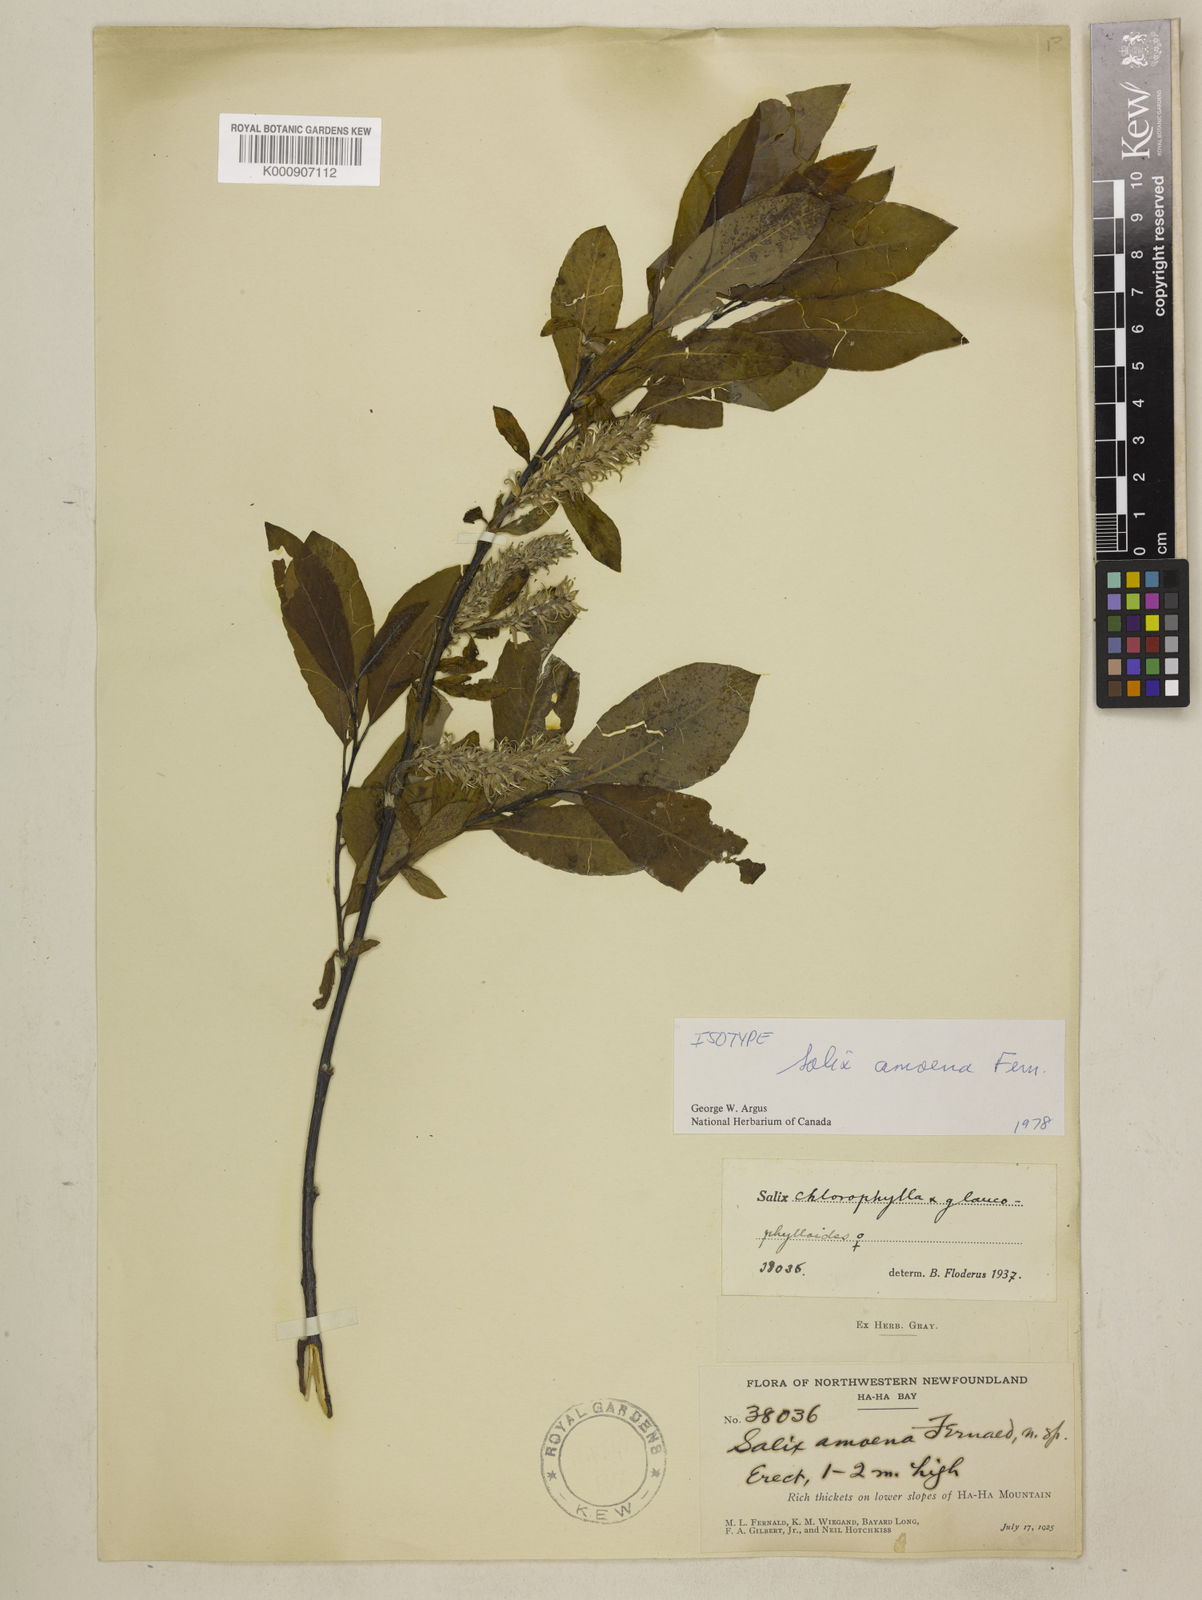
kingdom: Plantae
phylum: Tracheophyta
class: Magnoliopsida
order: Malpighiales
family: Salicaceae
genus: Salix
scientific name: Salix amoena
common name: Ha ha mountain willow
